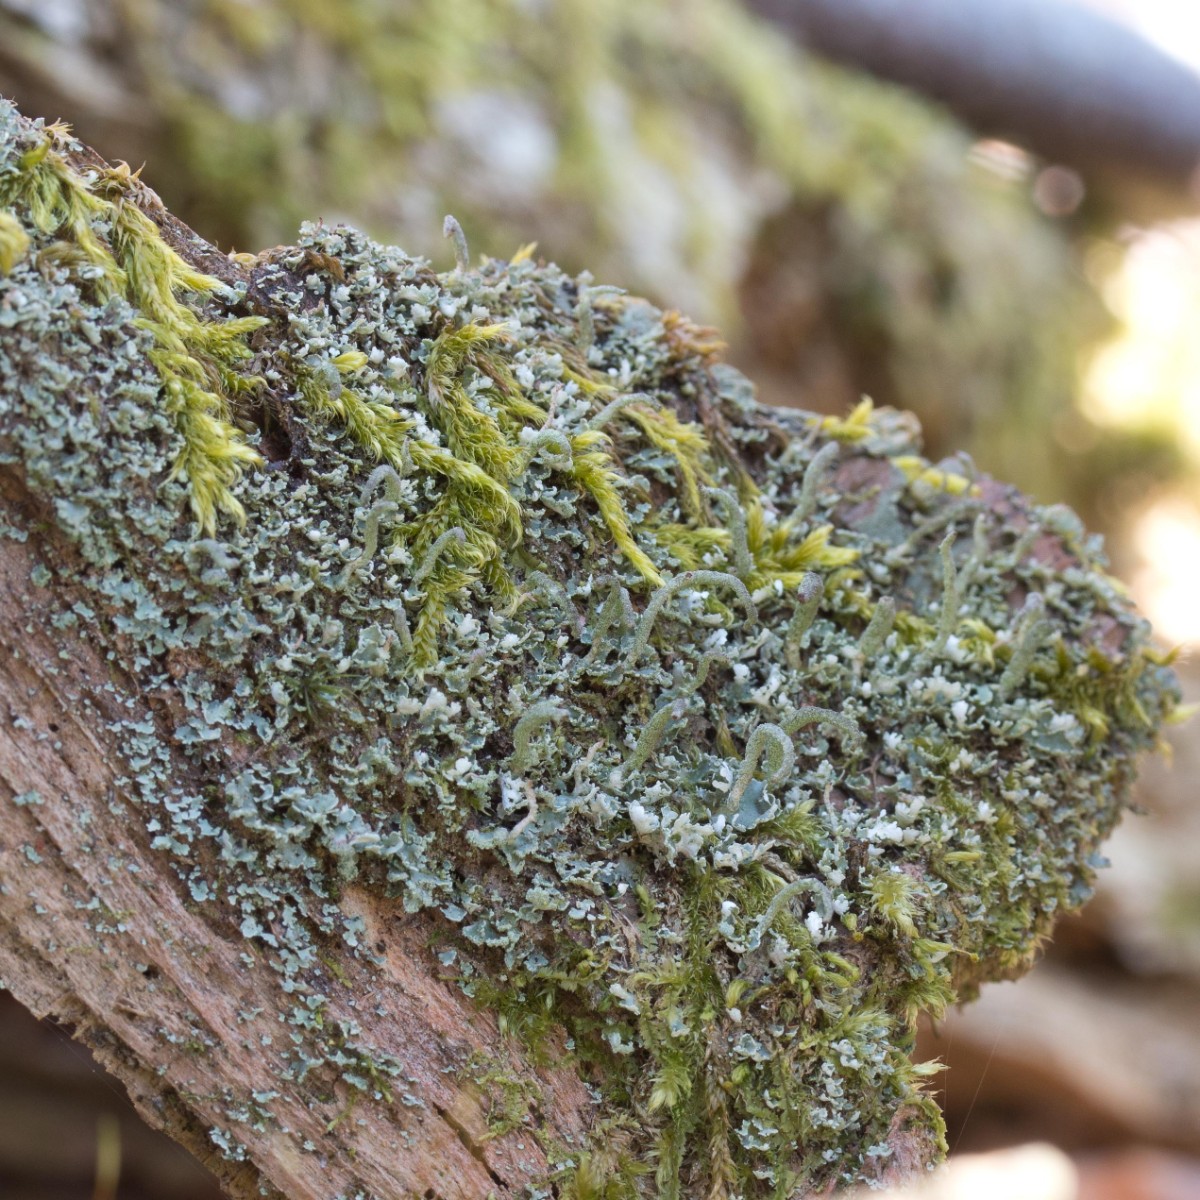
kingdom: Fungi
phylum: Ascomycota
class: Lecanoromycetes
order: Lecanorales
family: Cladoniaceae
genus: Cladonia
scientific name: Cladonia coniocraea
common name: træfods-bægerlav
